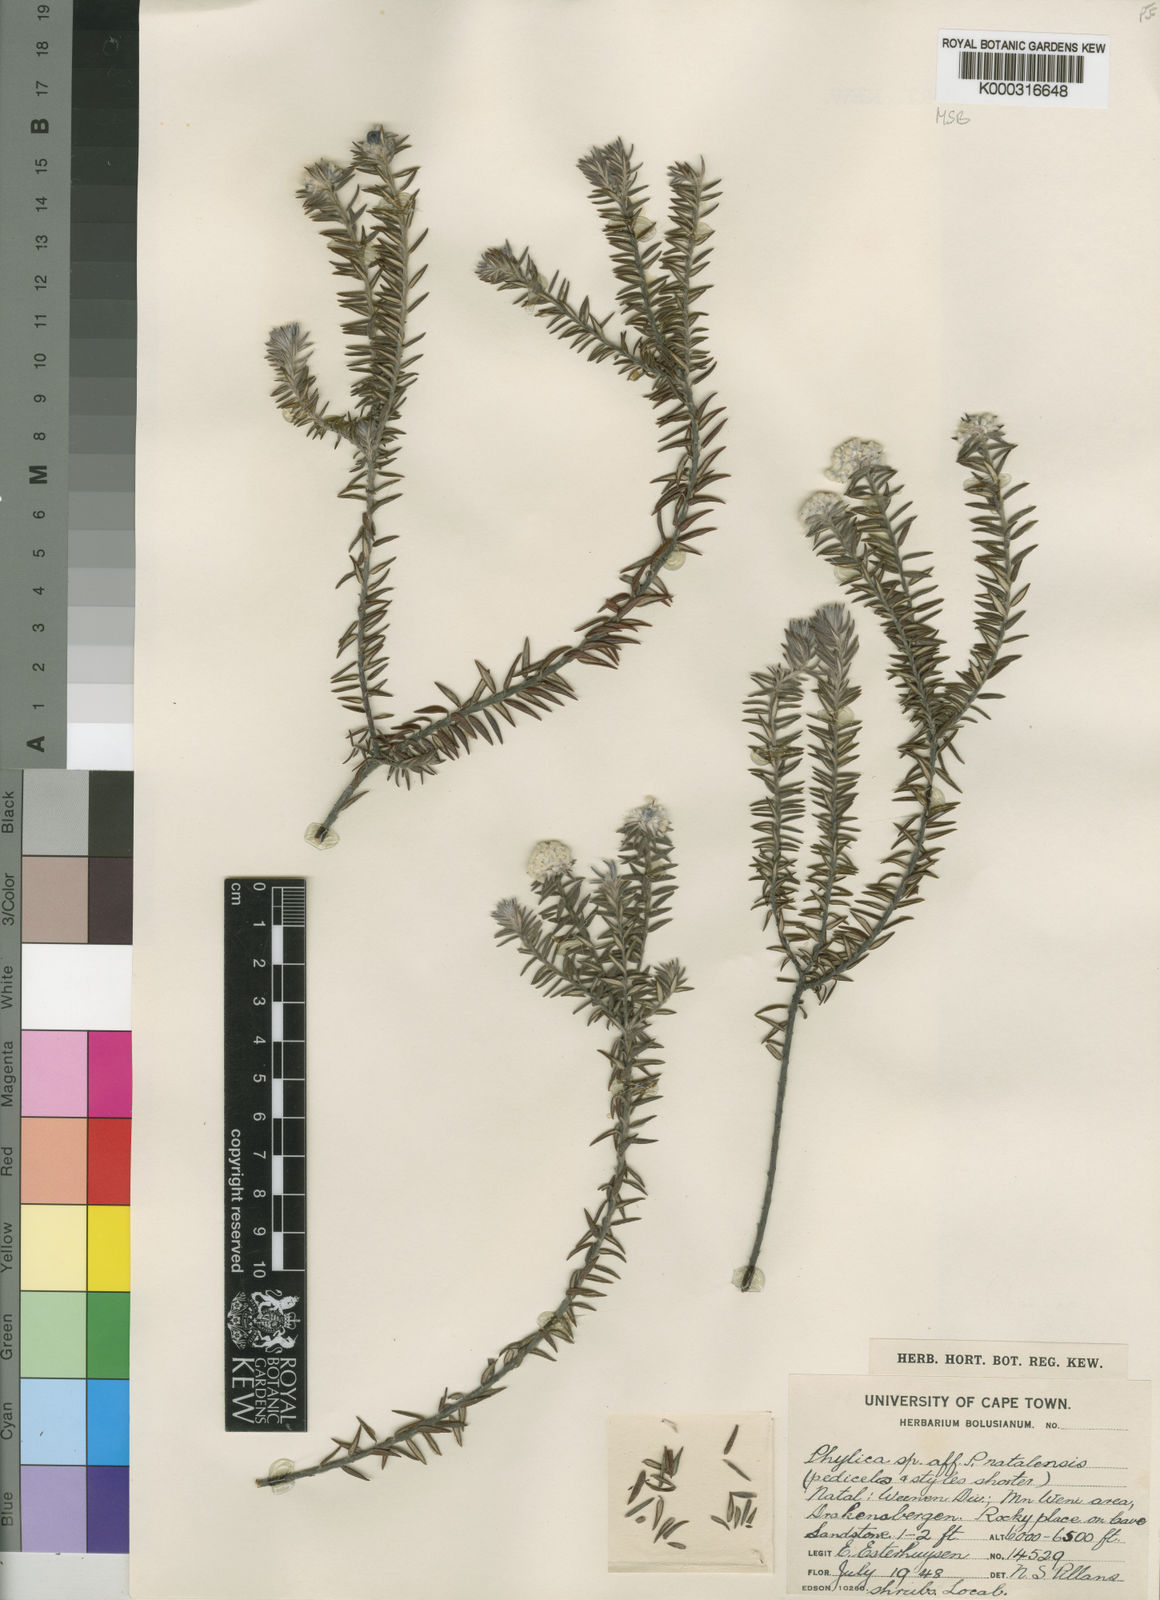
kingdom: Plantae
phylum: Tracheophyta
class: Magnoliopsida
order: Rosales
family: Rhamnaceae
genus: Phylica
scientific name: Phylica natalensis
